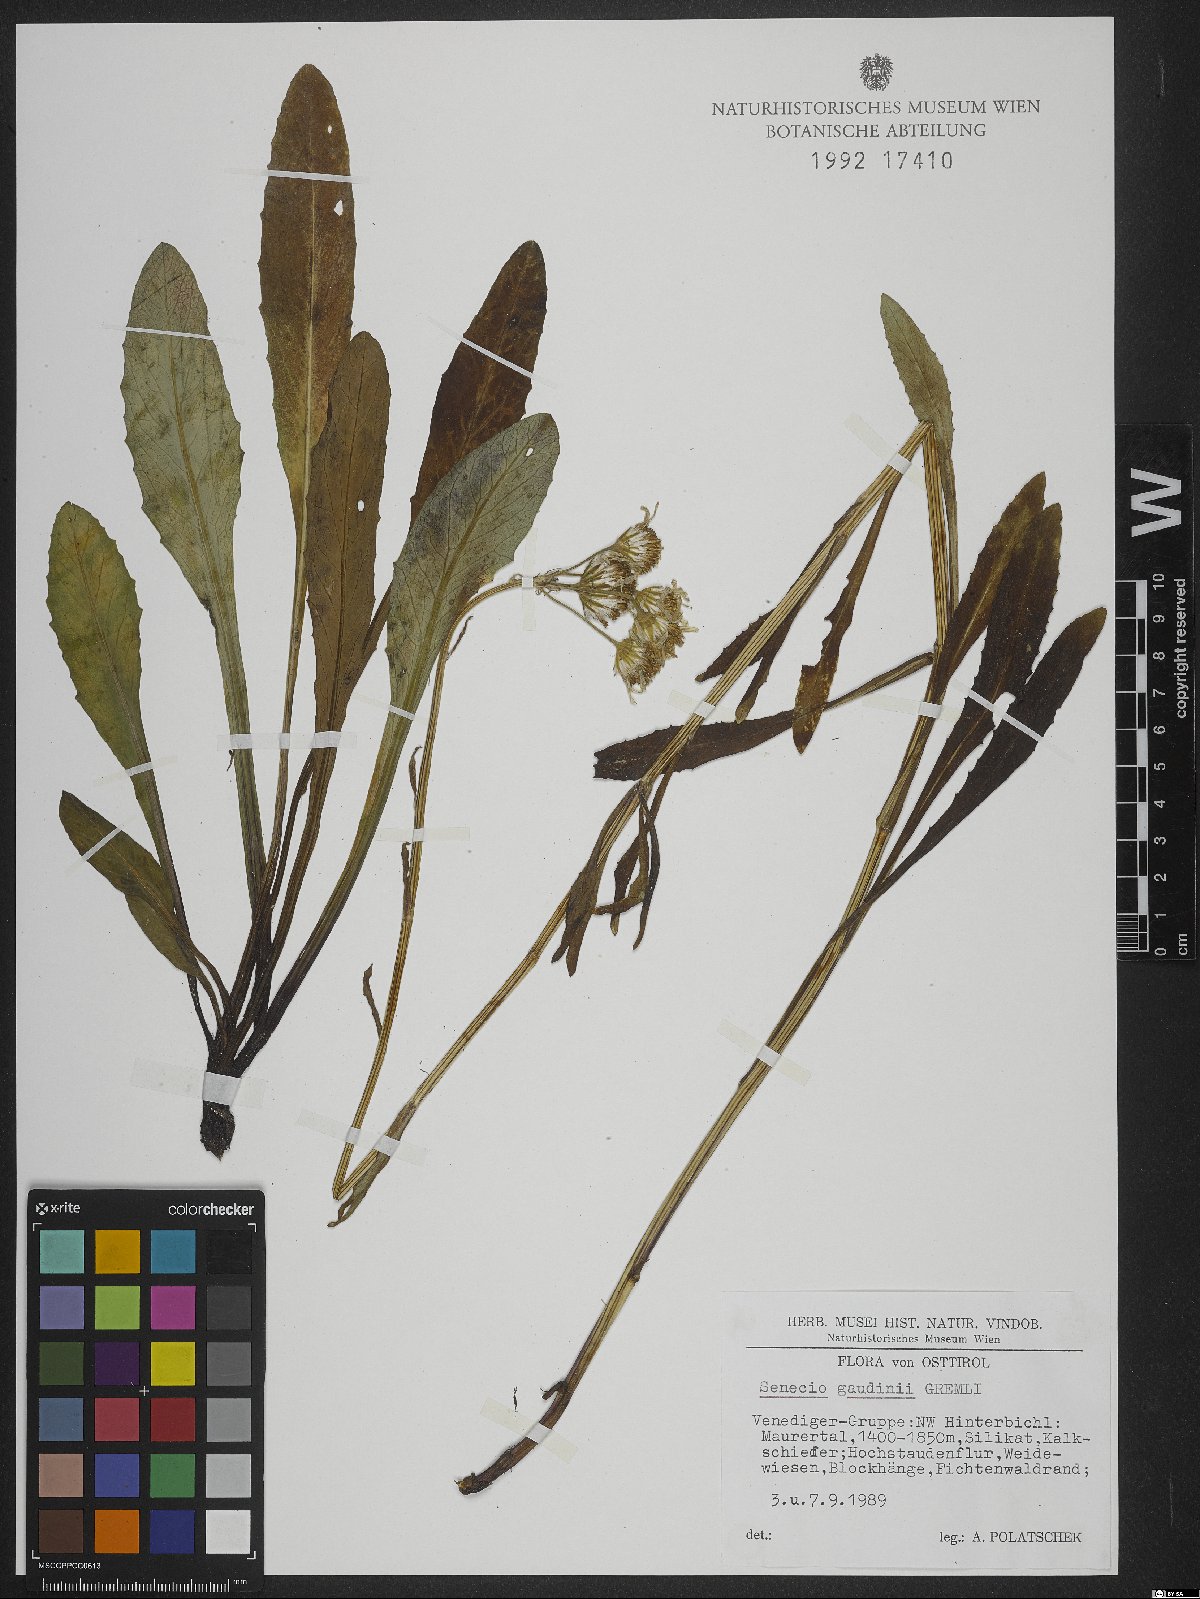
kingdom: Plantae
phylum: Tracheophyta
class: Magnoliopsida
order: Asterales
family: Asteraceae
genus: Tephroseris
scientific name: Tephroseris tenuifolia
